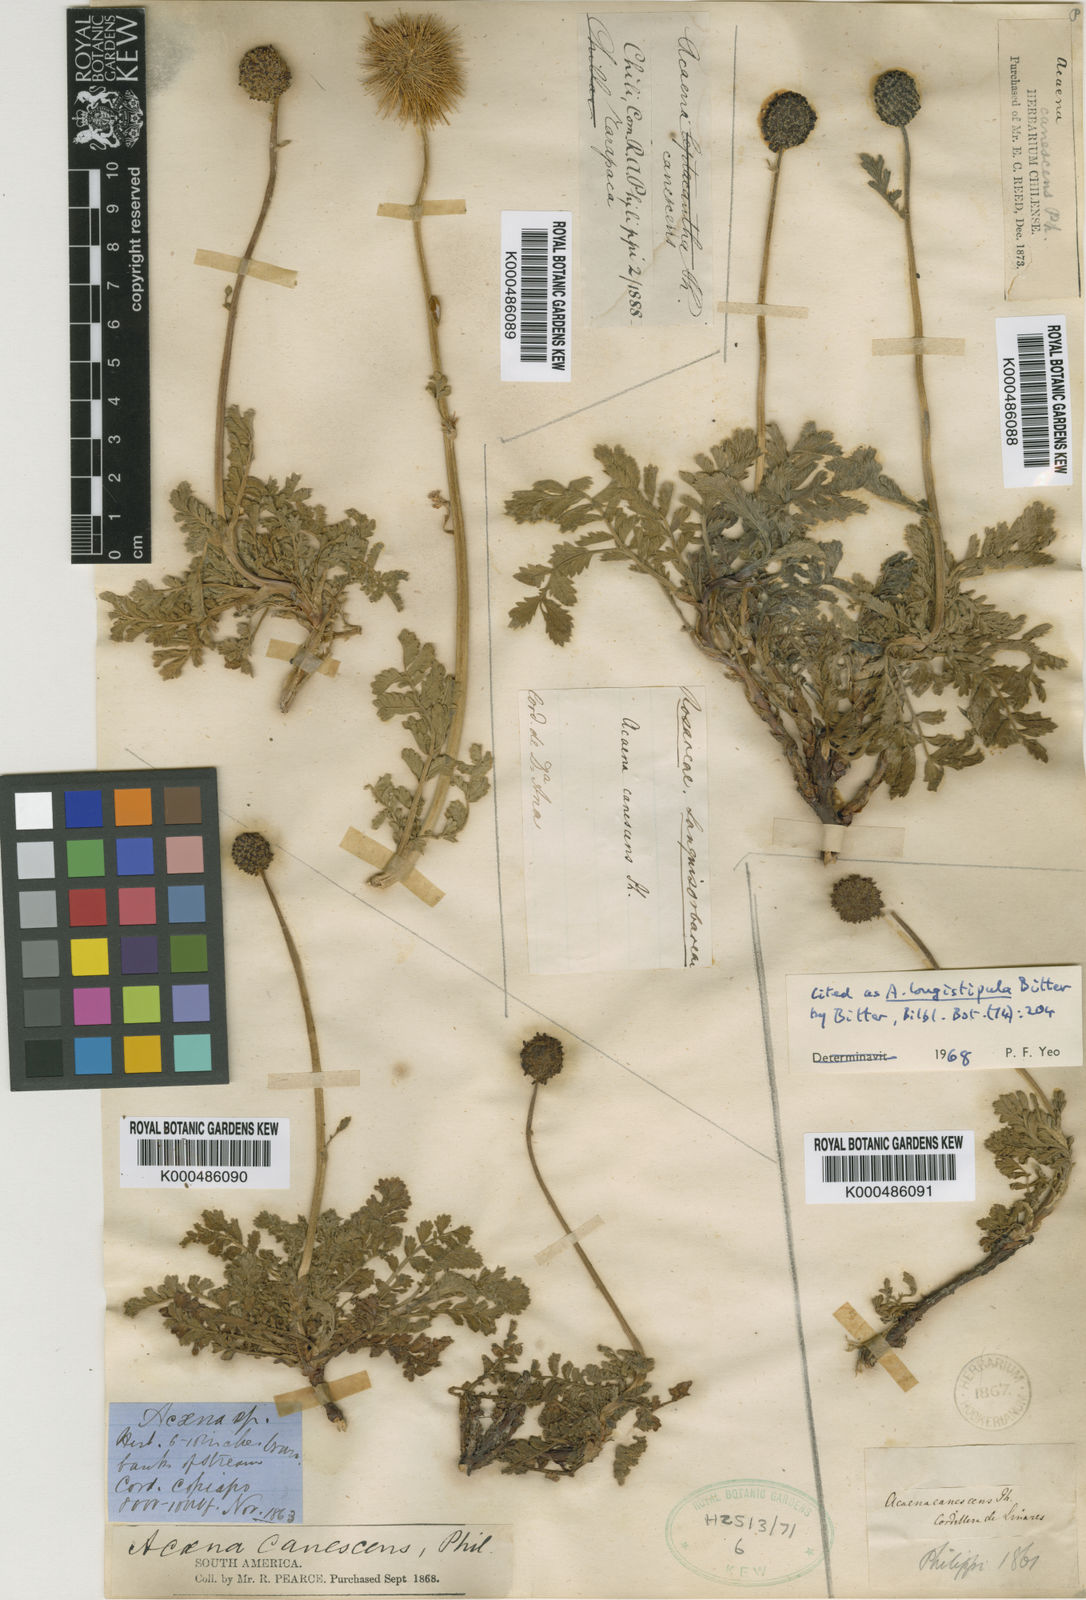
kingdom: Plantae
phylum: Tracheophyta
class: Magnoliopsida
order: Rosales
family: Rosaceae
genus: Acaena
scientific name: Acaena magellanica
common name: New zealand burr
